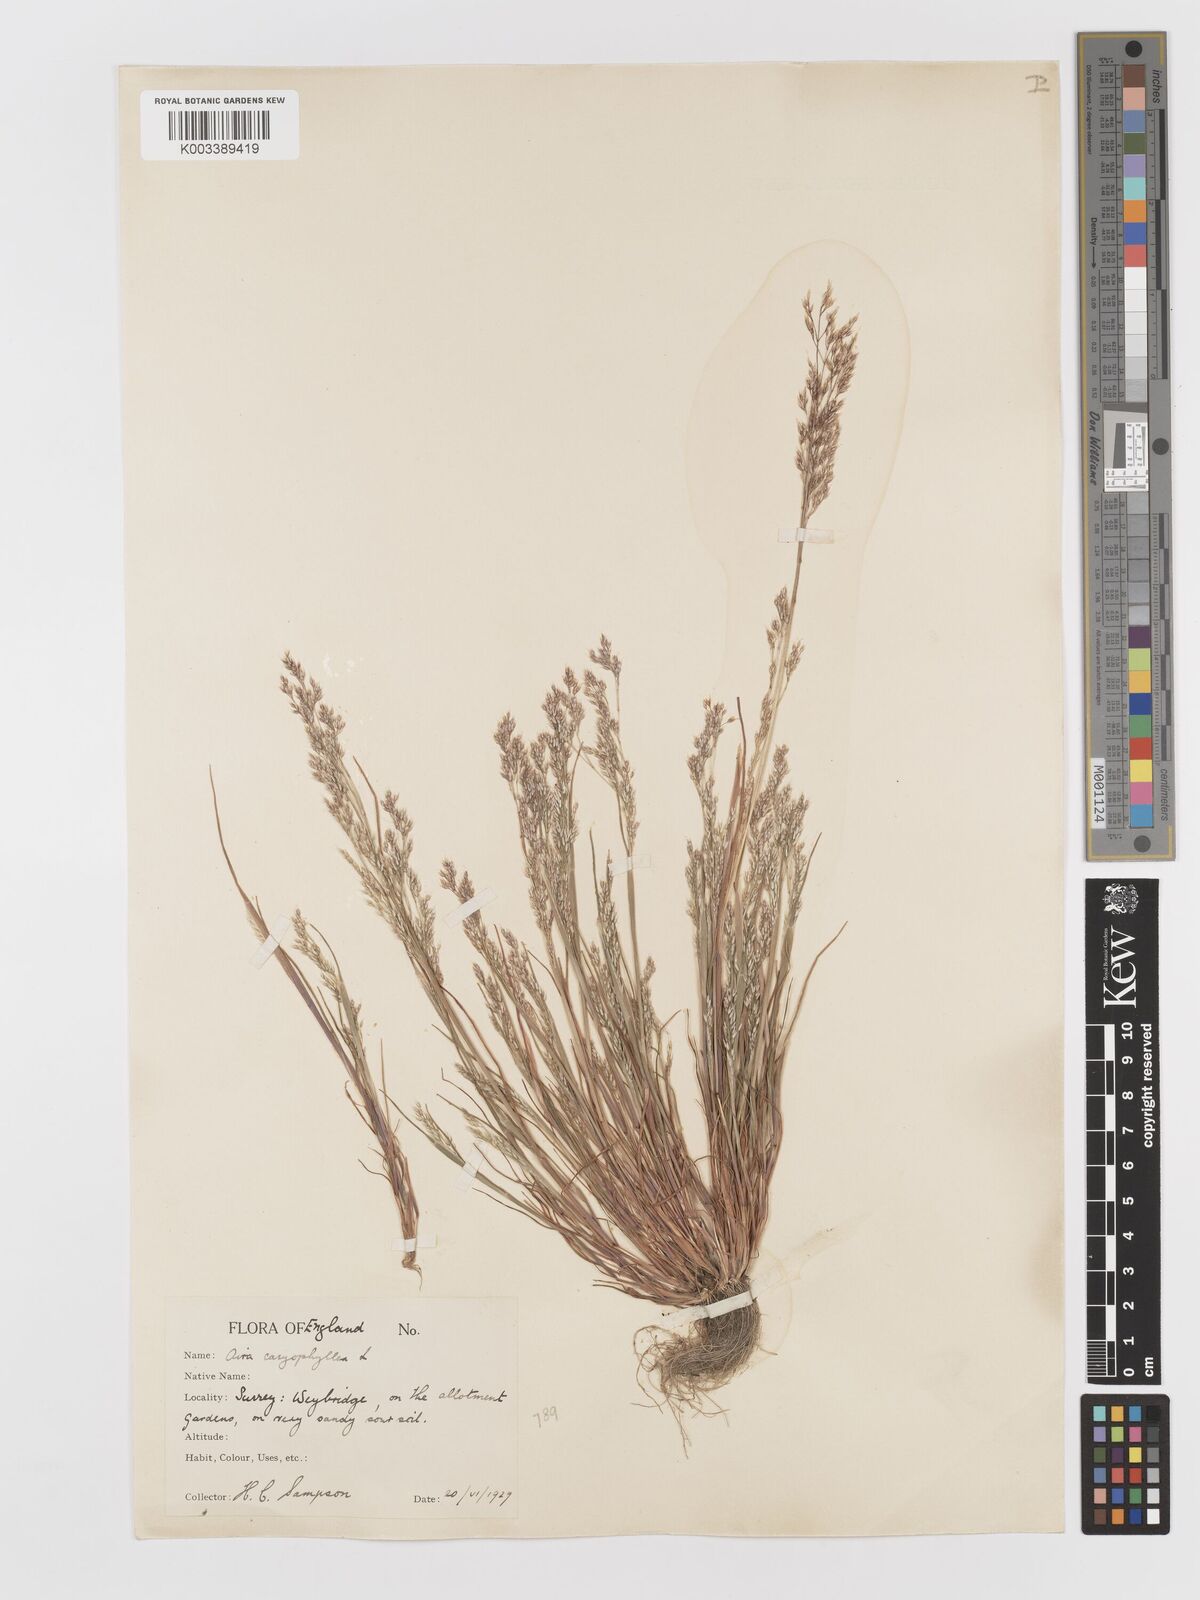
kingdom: Plantae
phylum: Tracheophyta
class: Liliopsida
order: Poales
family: Poaceae
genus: Aira
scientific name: Aira caryophyllea
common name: Silver hairgrass
